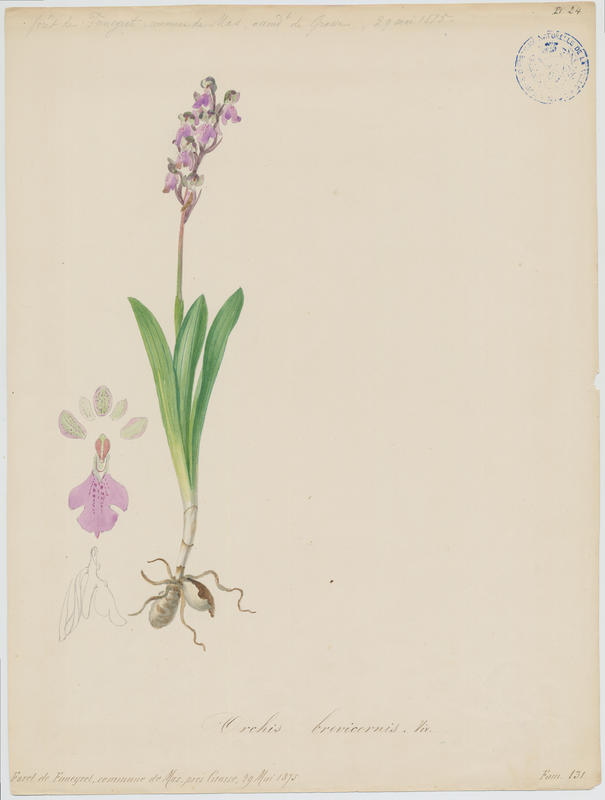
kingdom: Plantae
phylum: Tracheophyta
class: Liliopsida
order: Asparagales
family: Orchidaceae
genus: Orchis
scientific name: Orchis spitzelii
